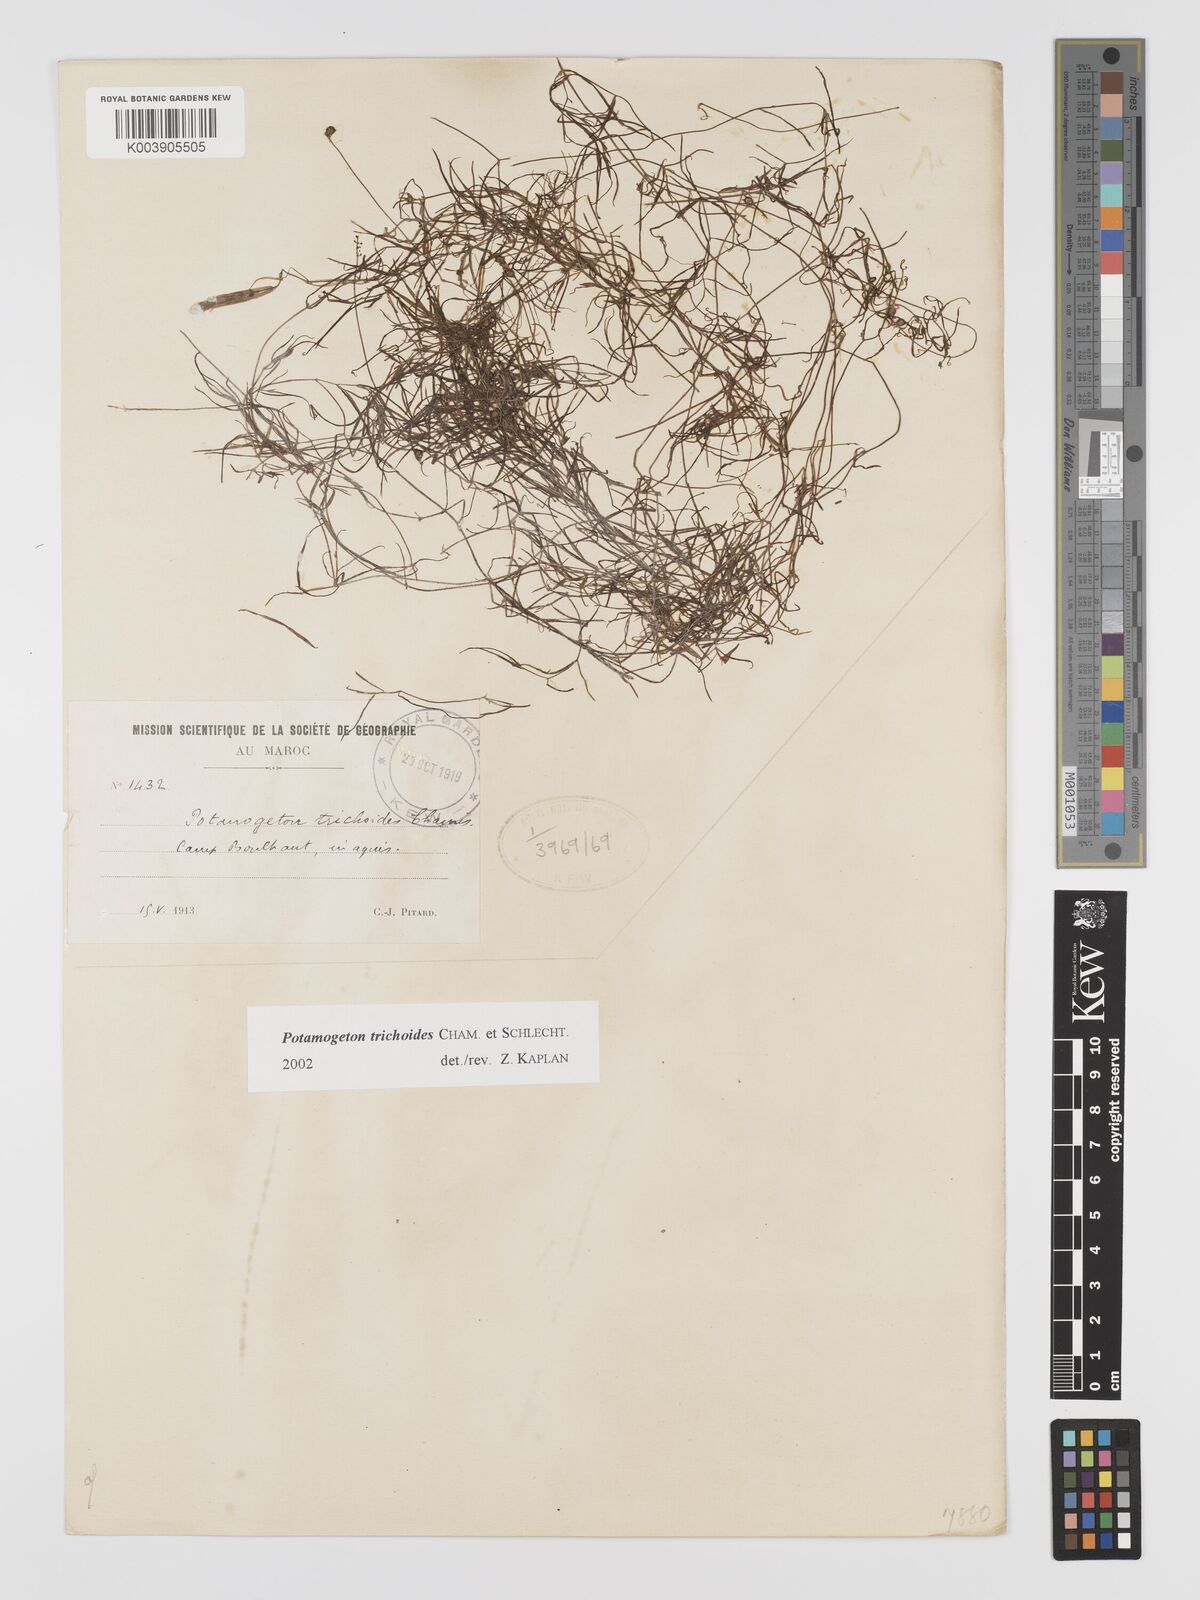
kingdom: Plantae
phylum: Tracheophyta
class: Liliopsida
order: Alismatales
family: Potamogetonaceae
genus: Potamogeton
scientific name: Potamogeton trichoides
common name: Hairlike pondweed
